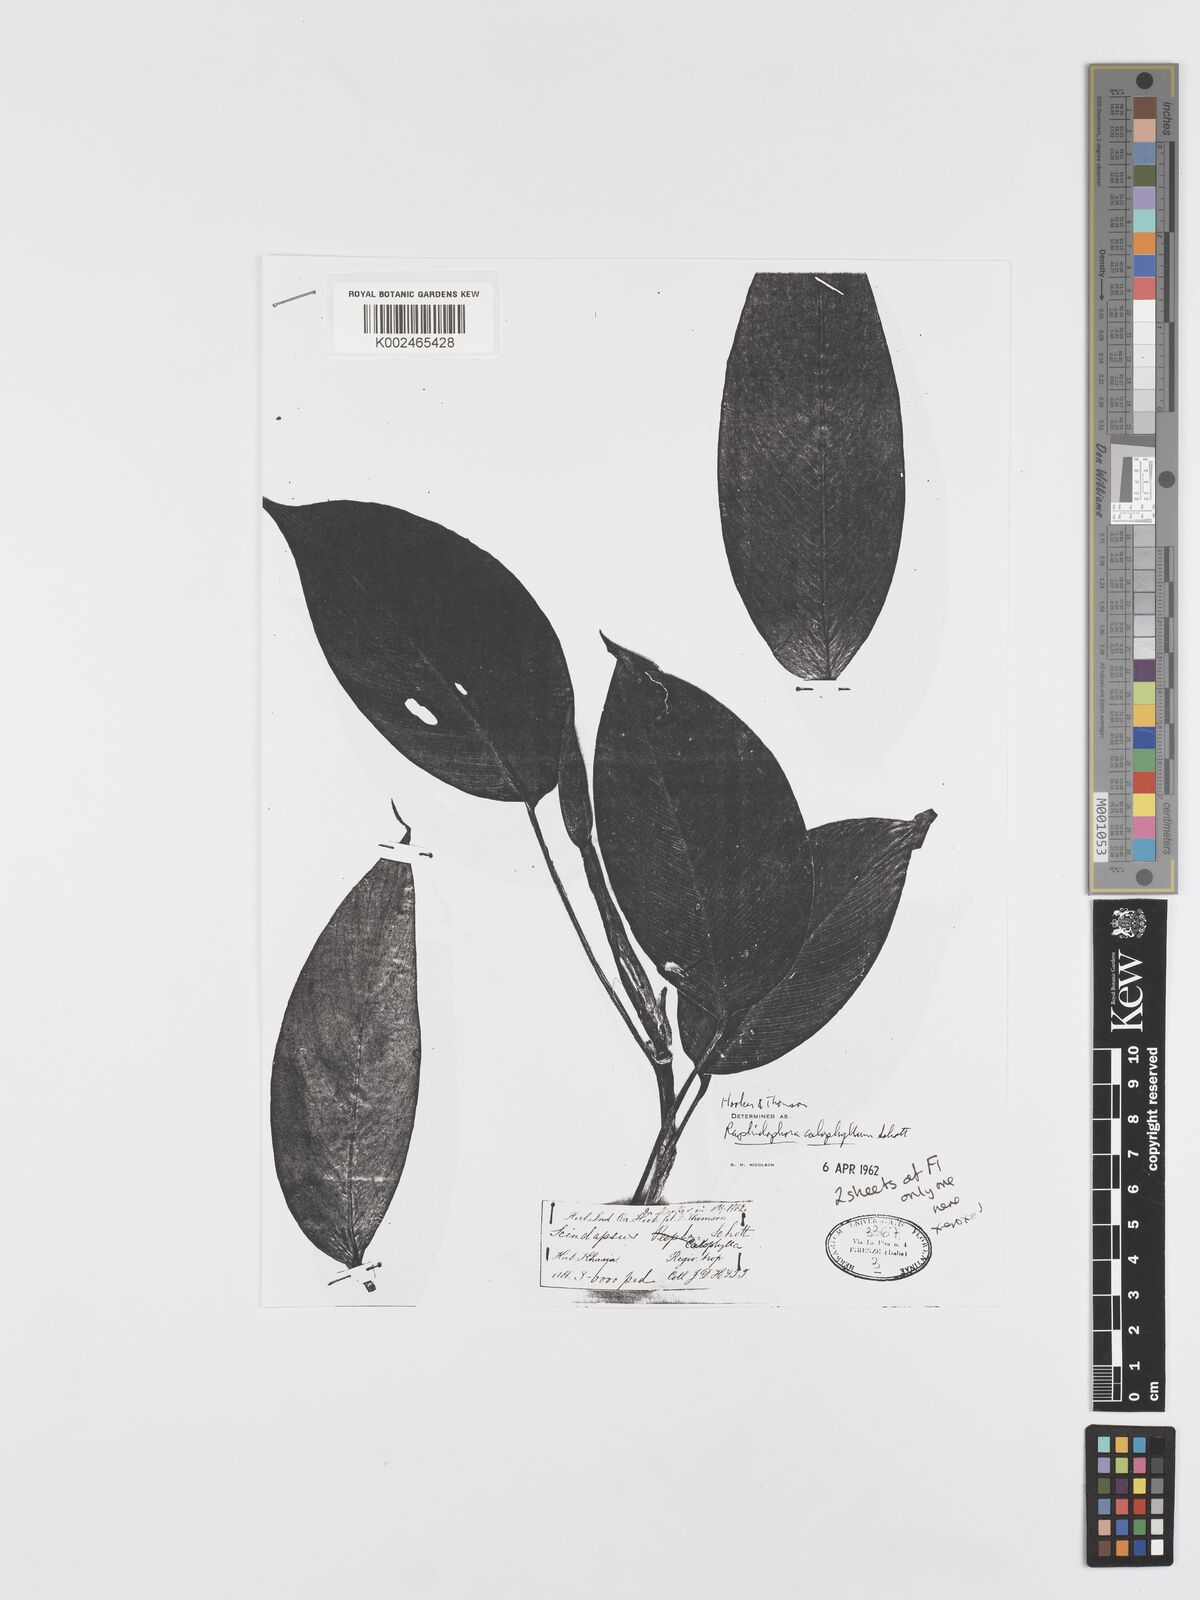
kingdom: Plantae
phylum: Tracheophyta
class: Liliopsida
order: Alismatales
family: Araceae
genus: Rhaphidophora
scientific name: Rhaphidophora calophylla
